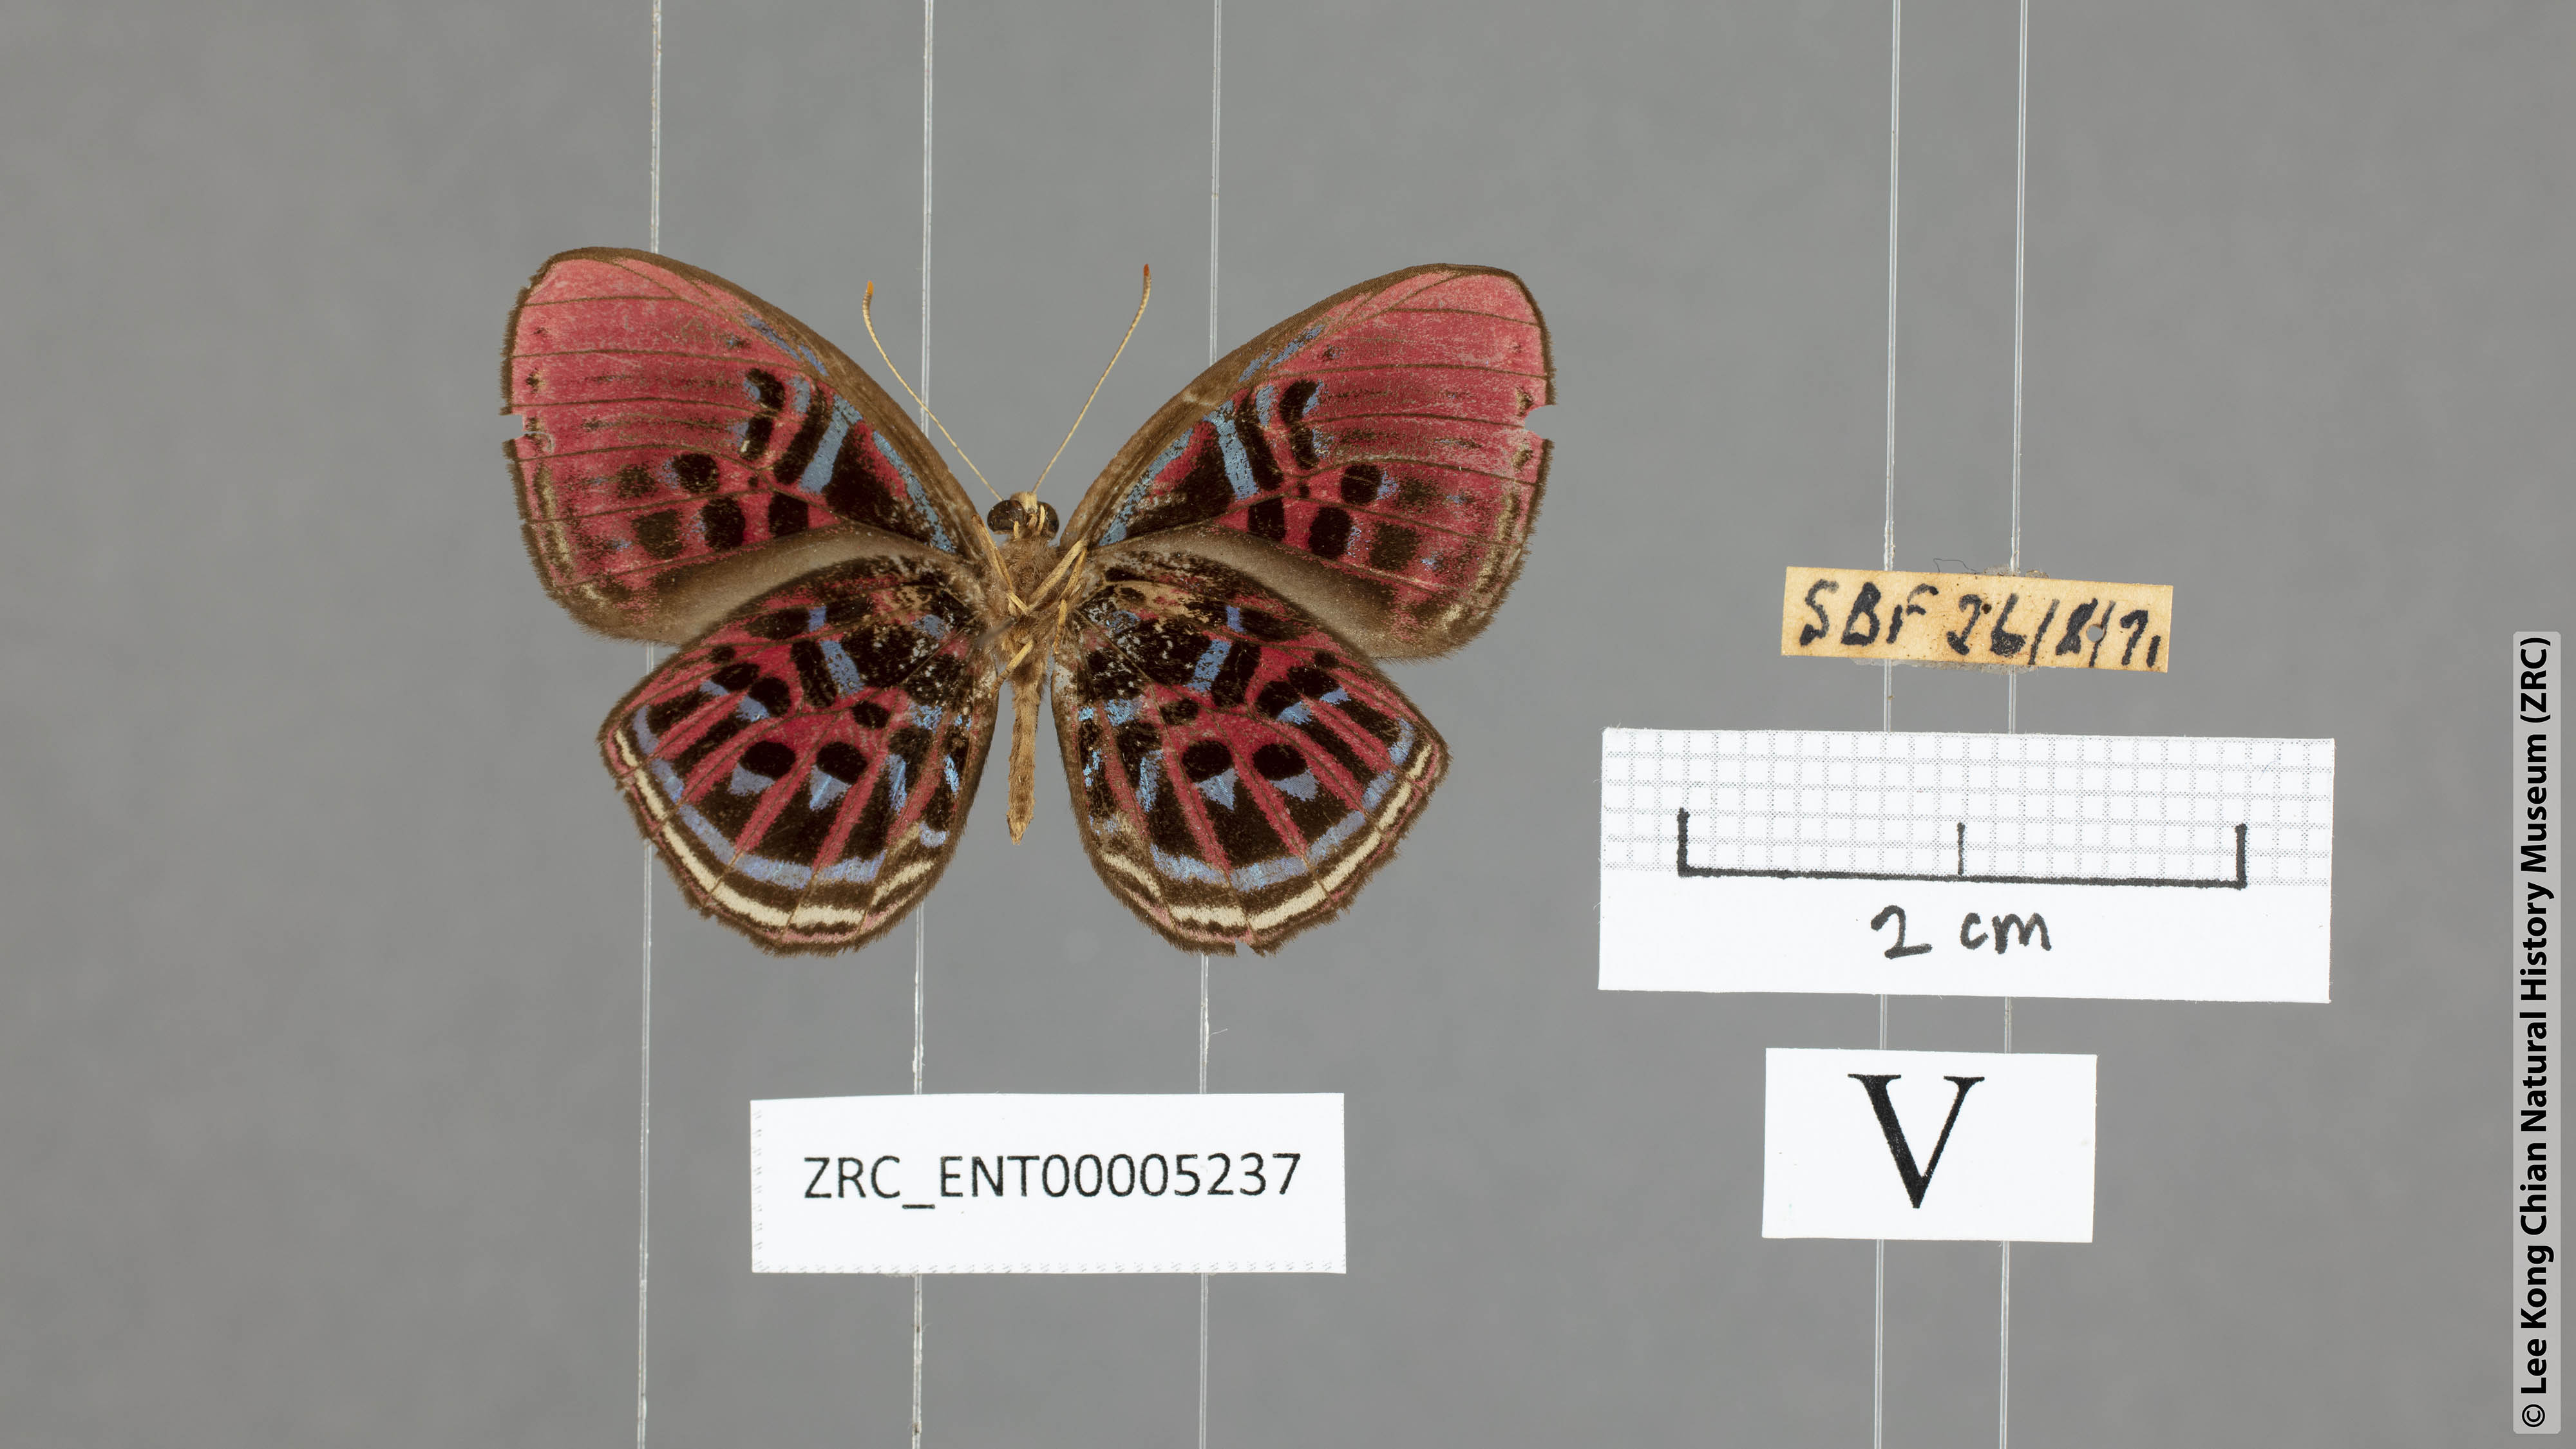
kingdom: Animalia
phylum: Arthropoda
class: Insecta
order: Lepidoptera
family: Riodinidae
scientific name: Riodinidae
